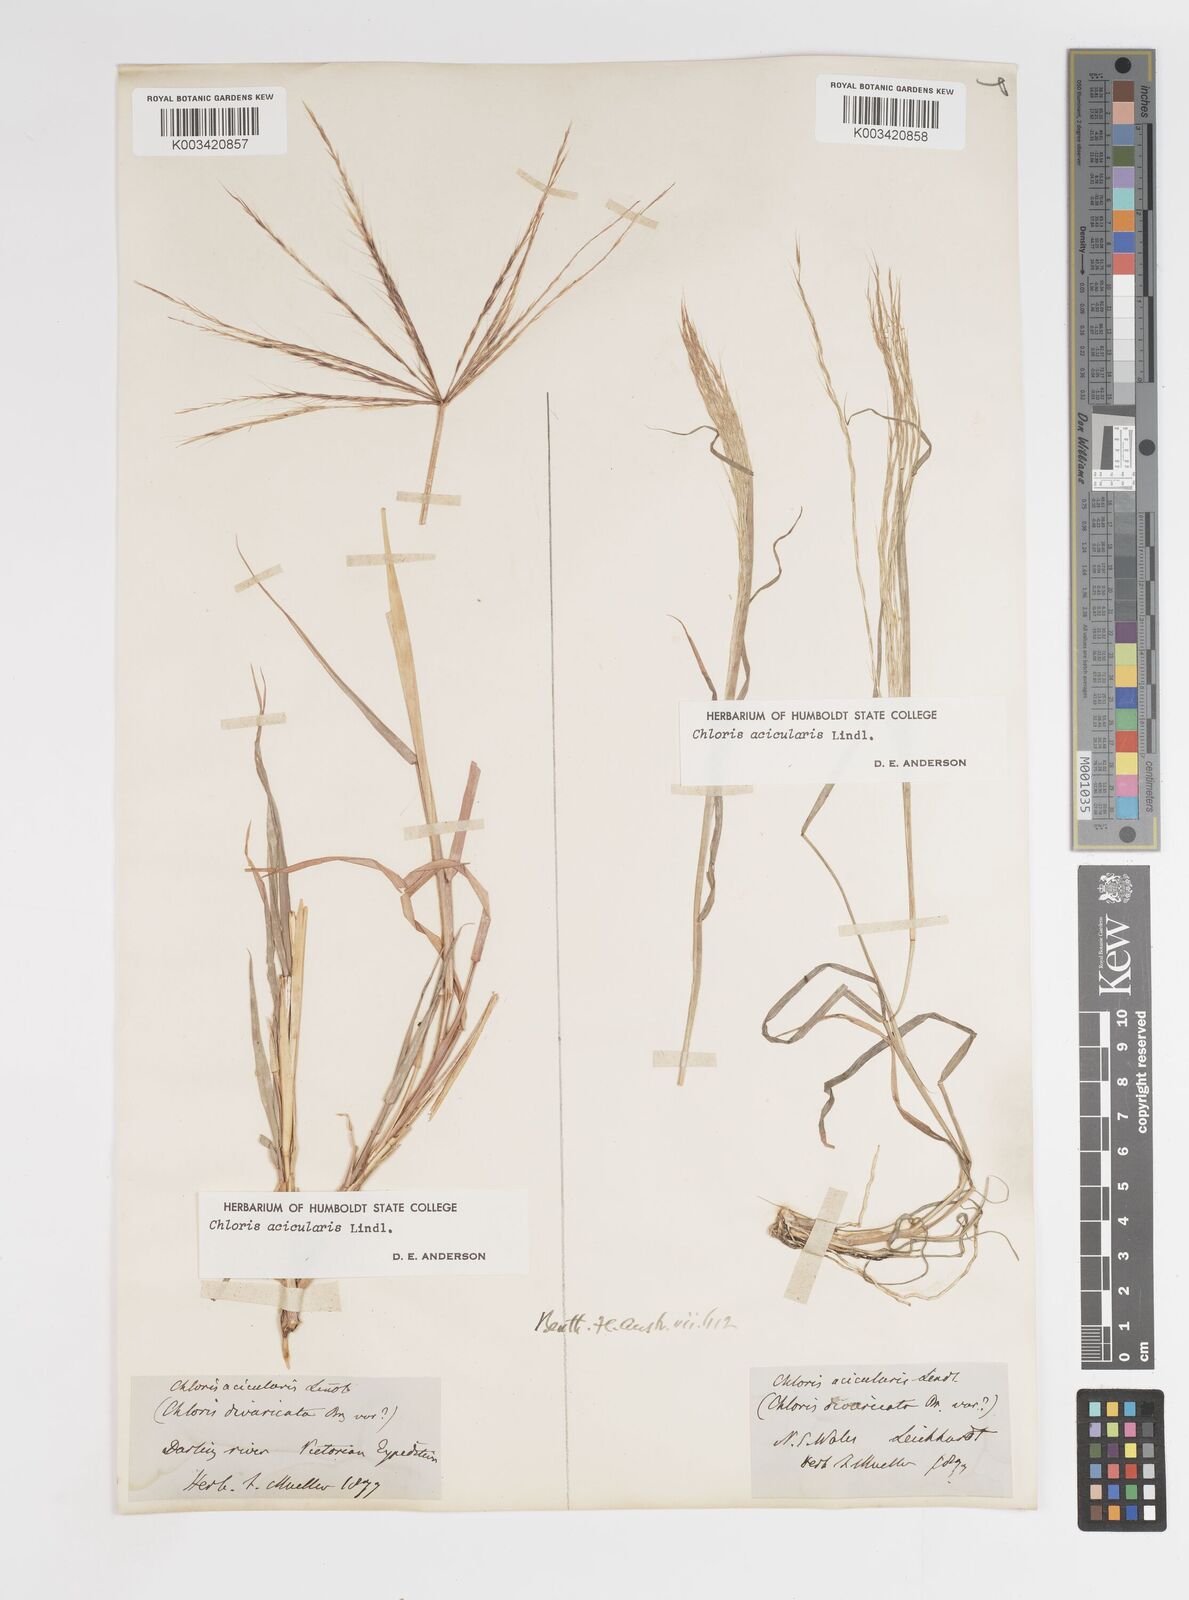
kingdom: Plantae
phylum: Tracheophyta
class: Liliopsida
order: Poales
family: Poaceae
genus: Enteropogon
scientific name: Enteropogon acicularis
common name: Curly windmill grass
